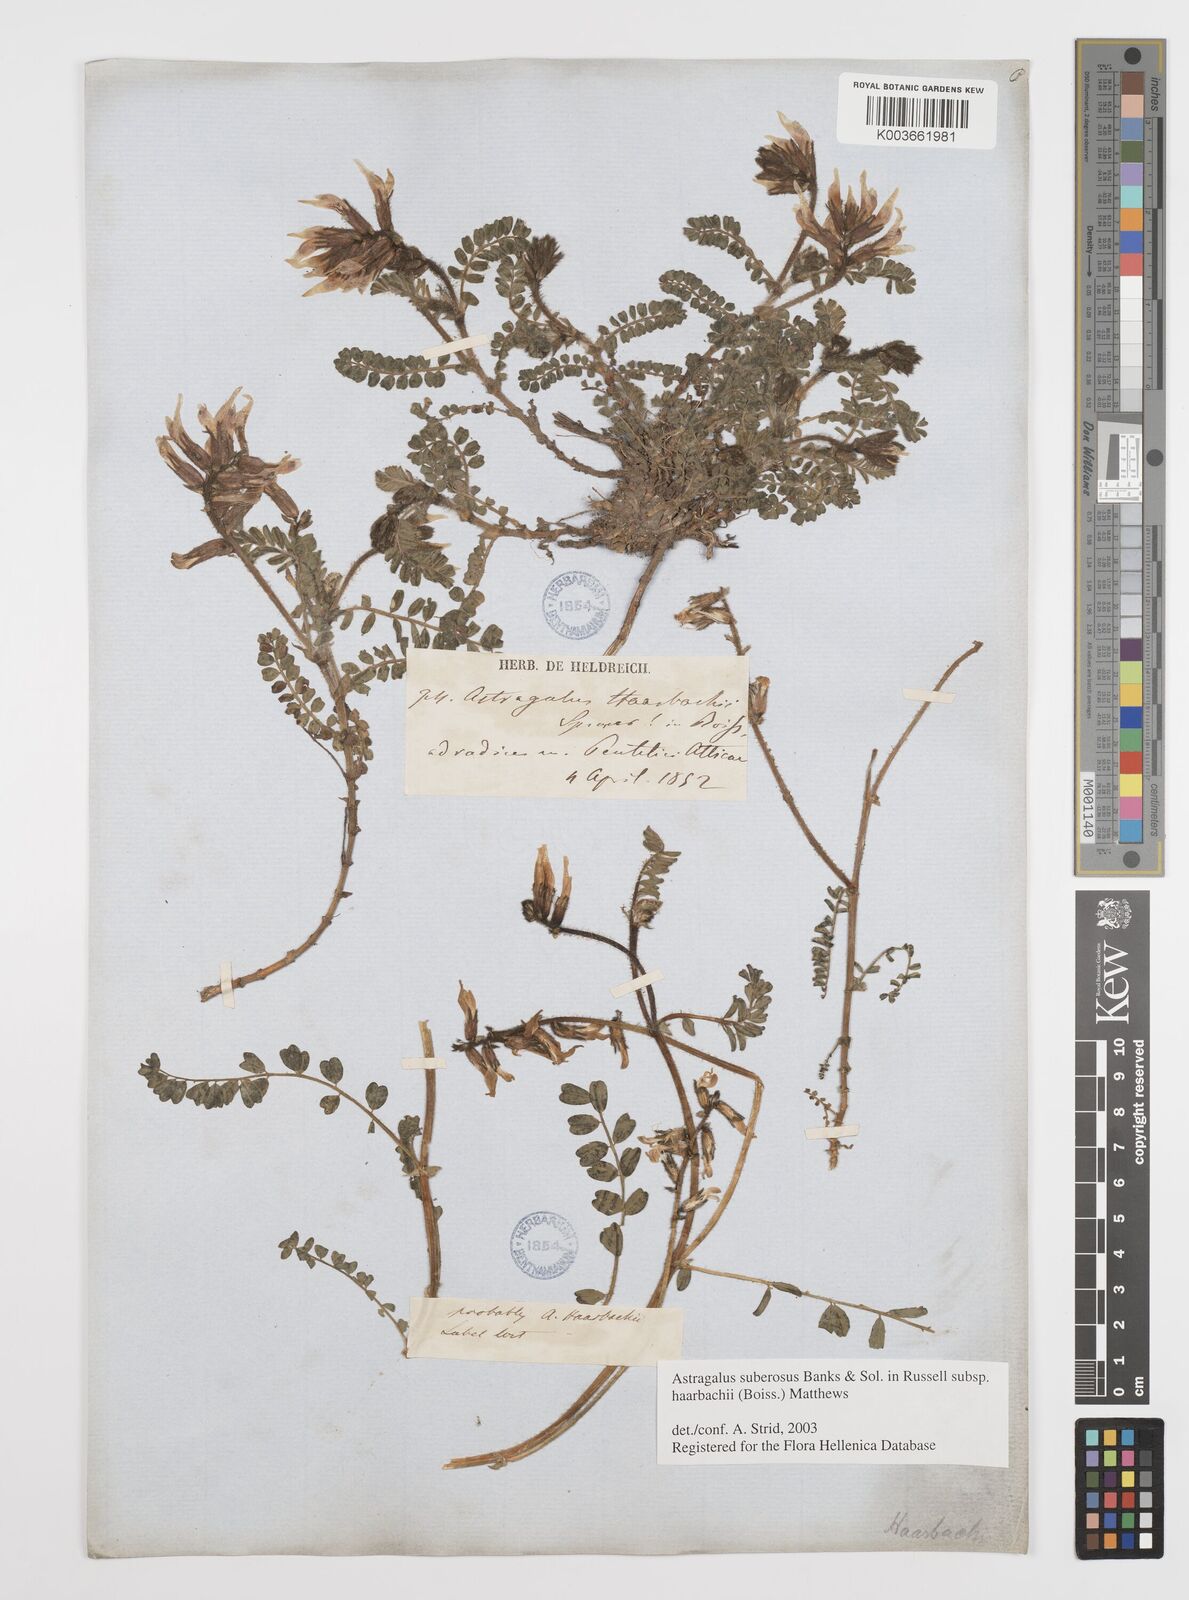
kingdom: Plantae
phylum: Tracheophyta
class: Magnoliopsida
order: Fabales
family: Fabaceae
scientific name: Fabaceae
